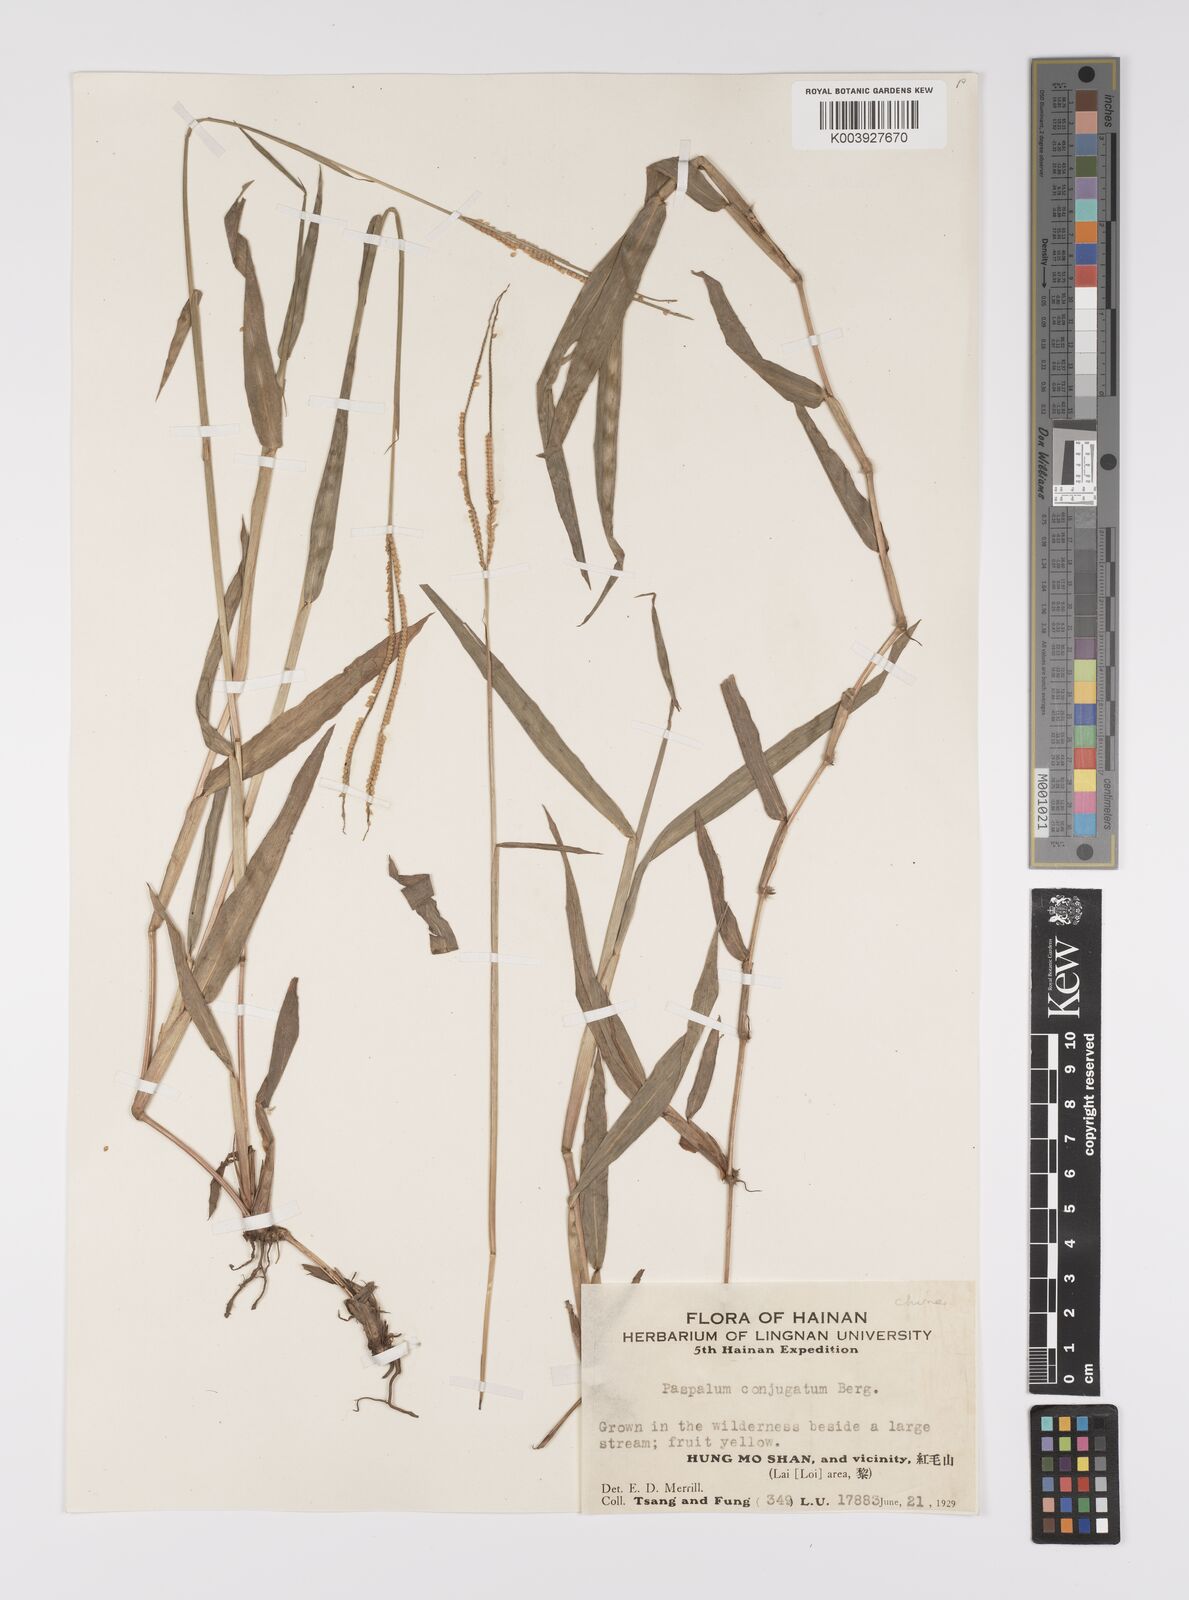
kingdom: Plantae
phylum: Tracheophyta
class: Liliopsida
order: Poales
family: Poaceae
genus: Paspalum
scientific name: Paspalum conjugatum
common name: Hilograss
